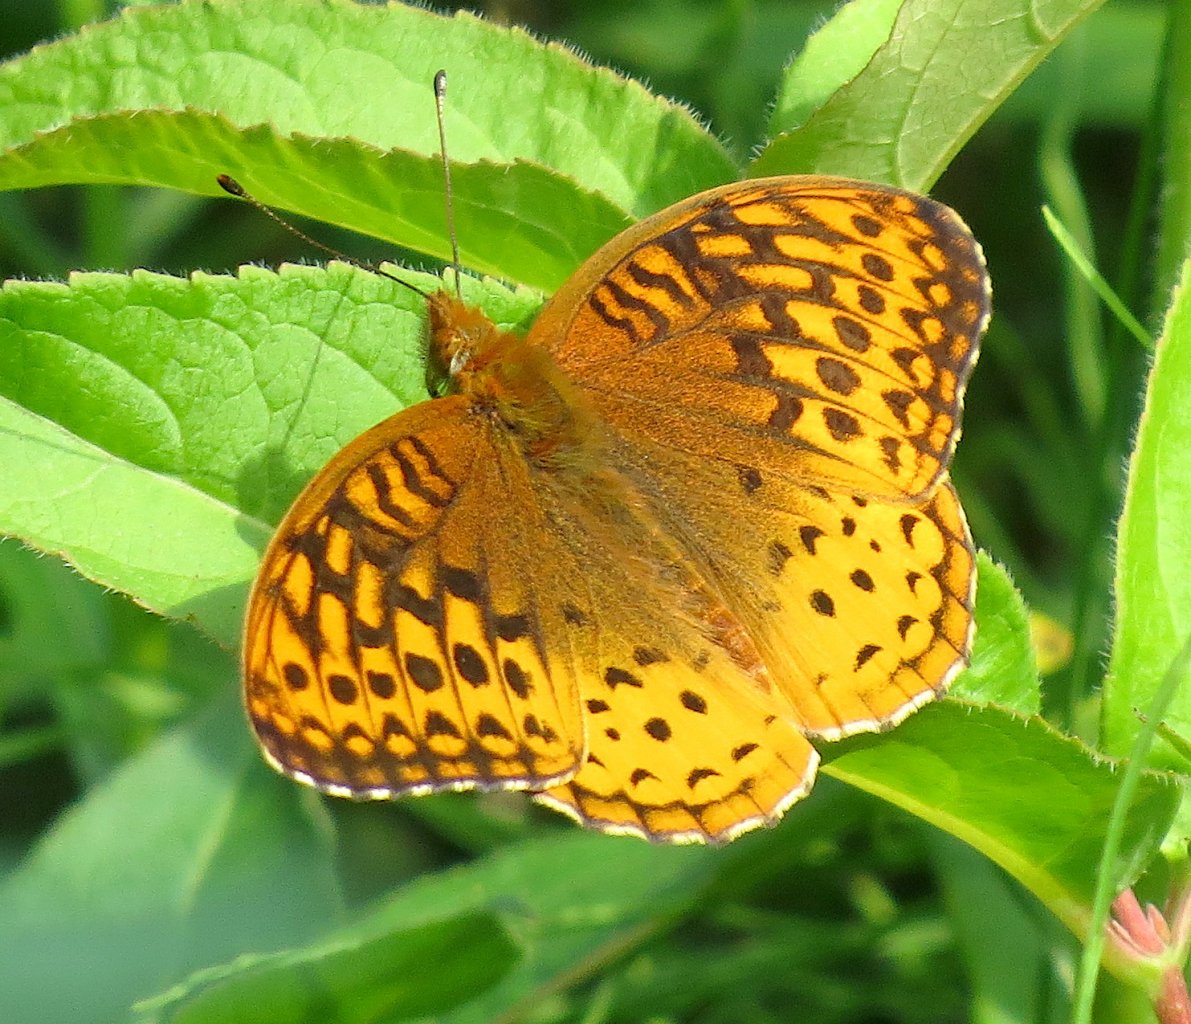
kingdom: Animalia
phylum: Arthropoda
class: Insecta
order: Lepidoptera
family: Nymphalidae
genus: Speyeria
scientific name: Speyeria
